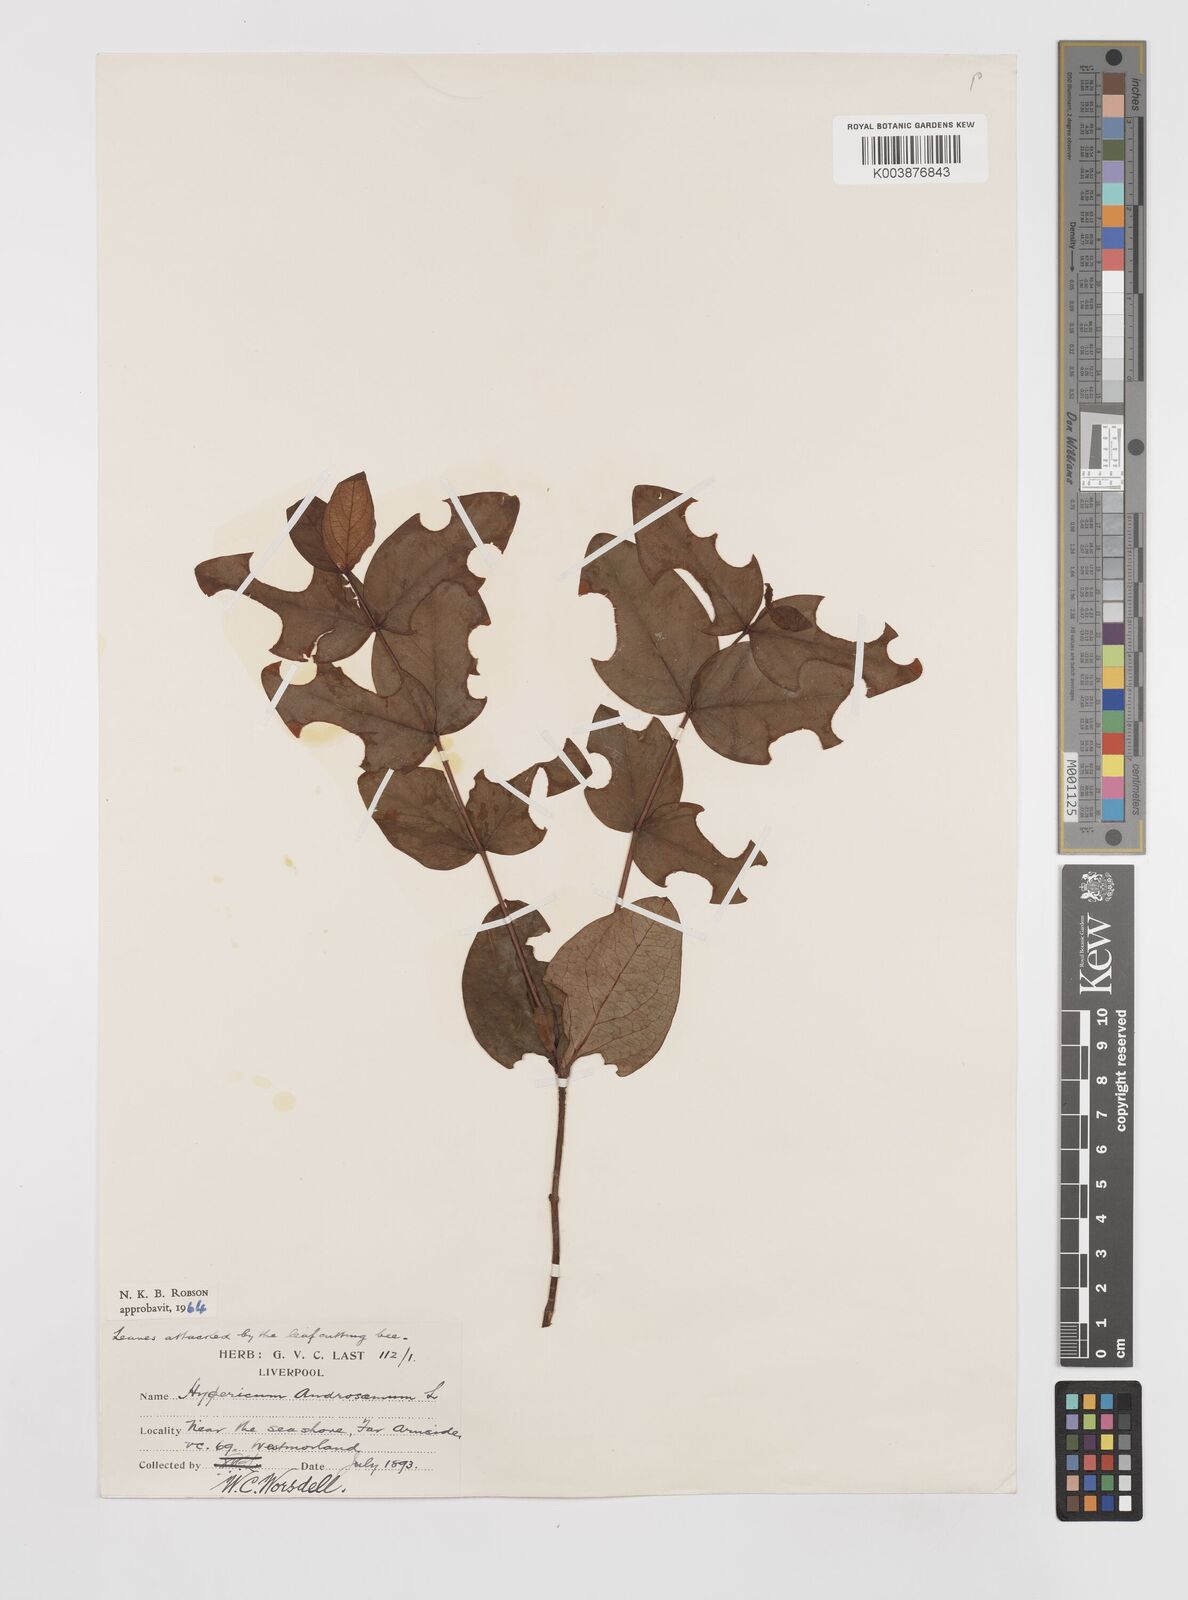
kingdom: Plantae
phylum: Tracheophyta
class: Magnoliopsida
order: Malpighiales
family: Hypericaceae
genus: Hypericum
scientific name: Hypericum androsaemum
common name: Sweet-amber
